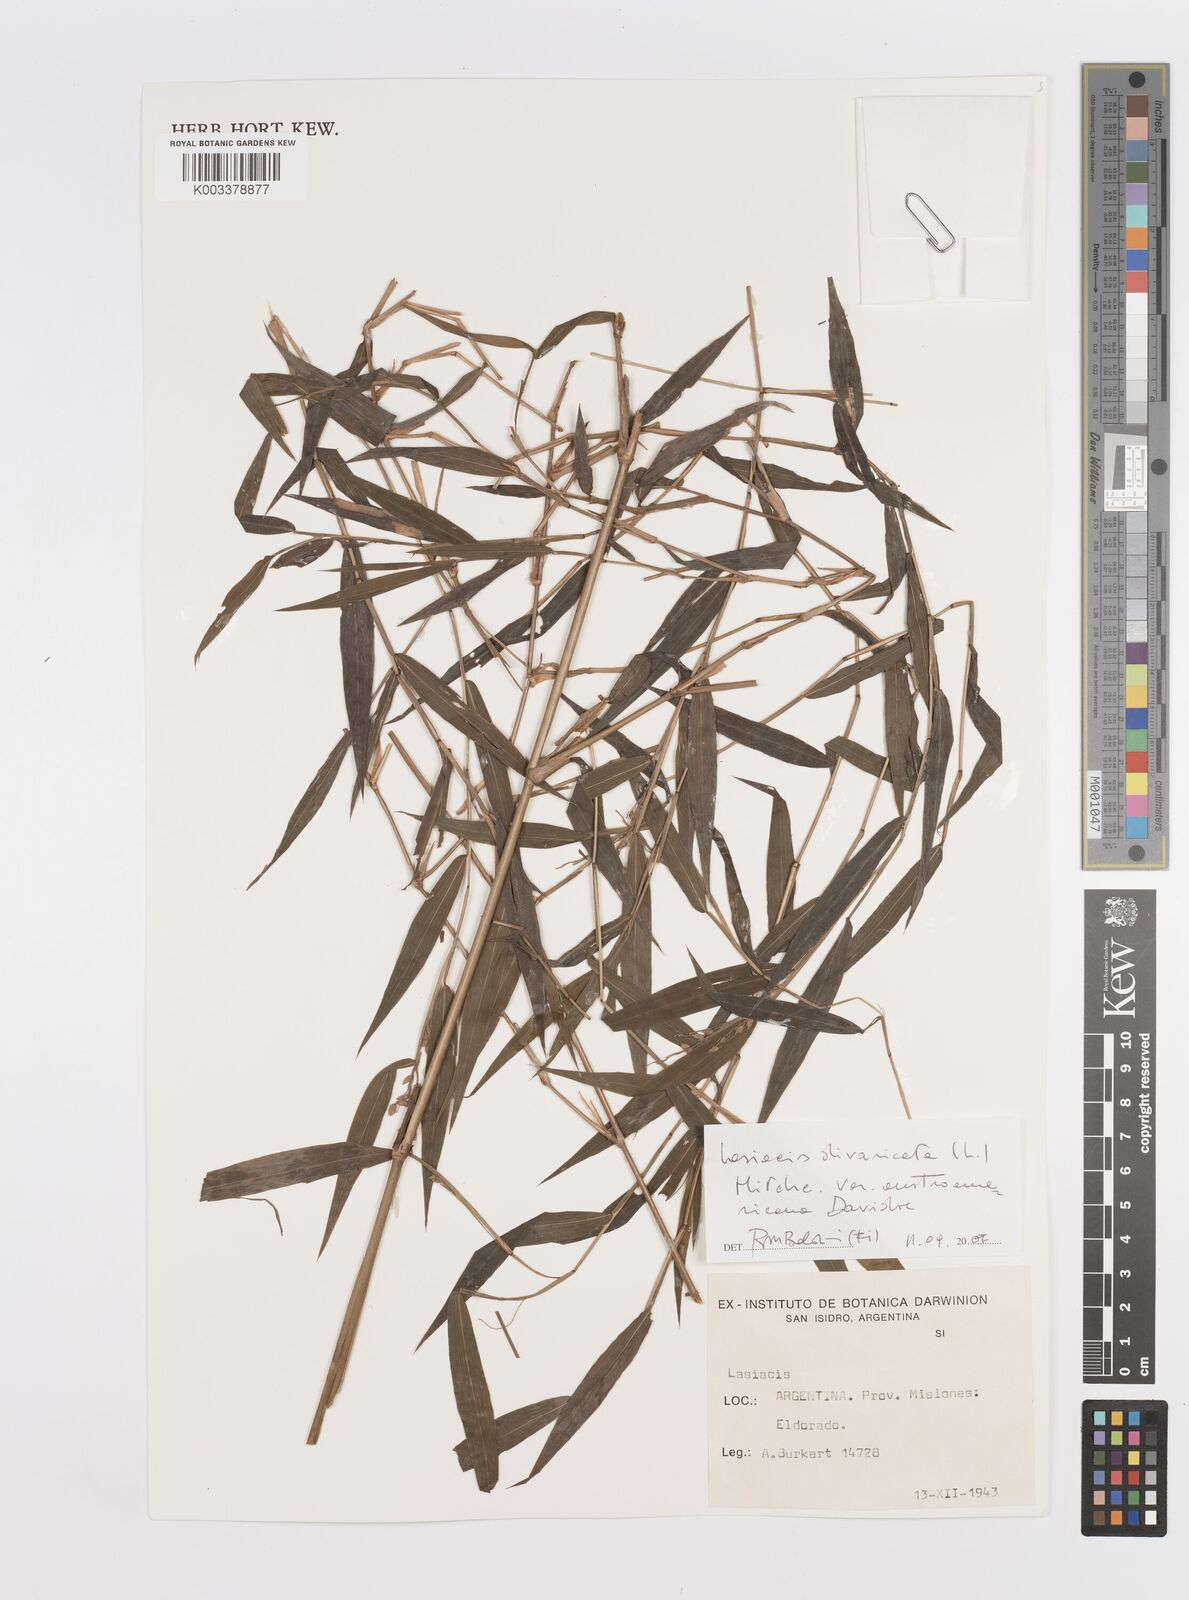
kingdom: Plantae
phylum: Tracheophyta
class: Liliopsida
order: Poales
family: Poaceae
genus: Lasiacis
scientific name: Lasiacis divaricata
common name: Smallcane
